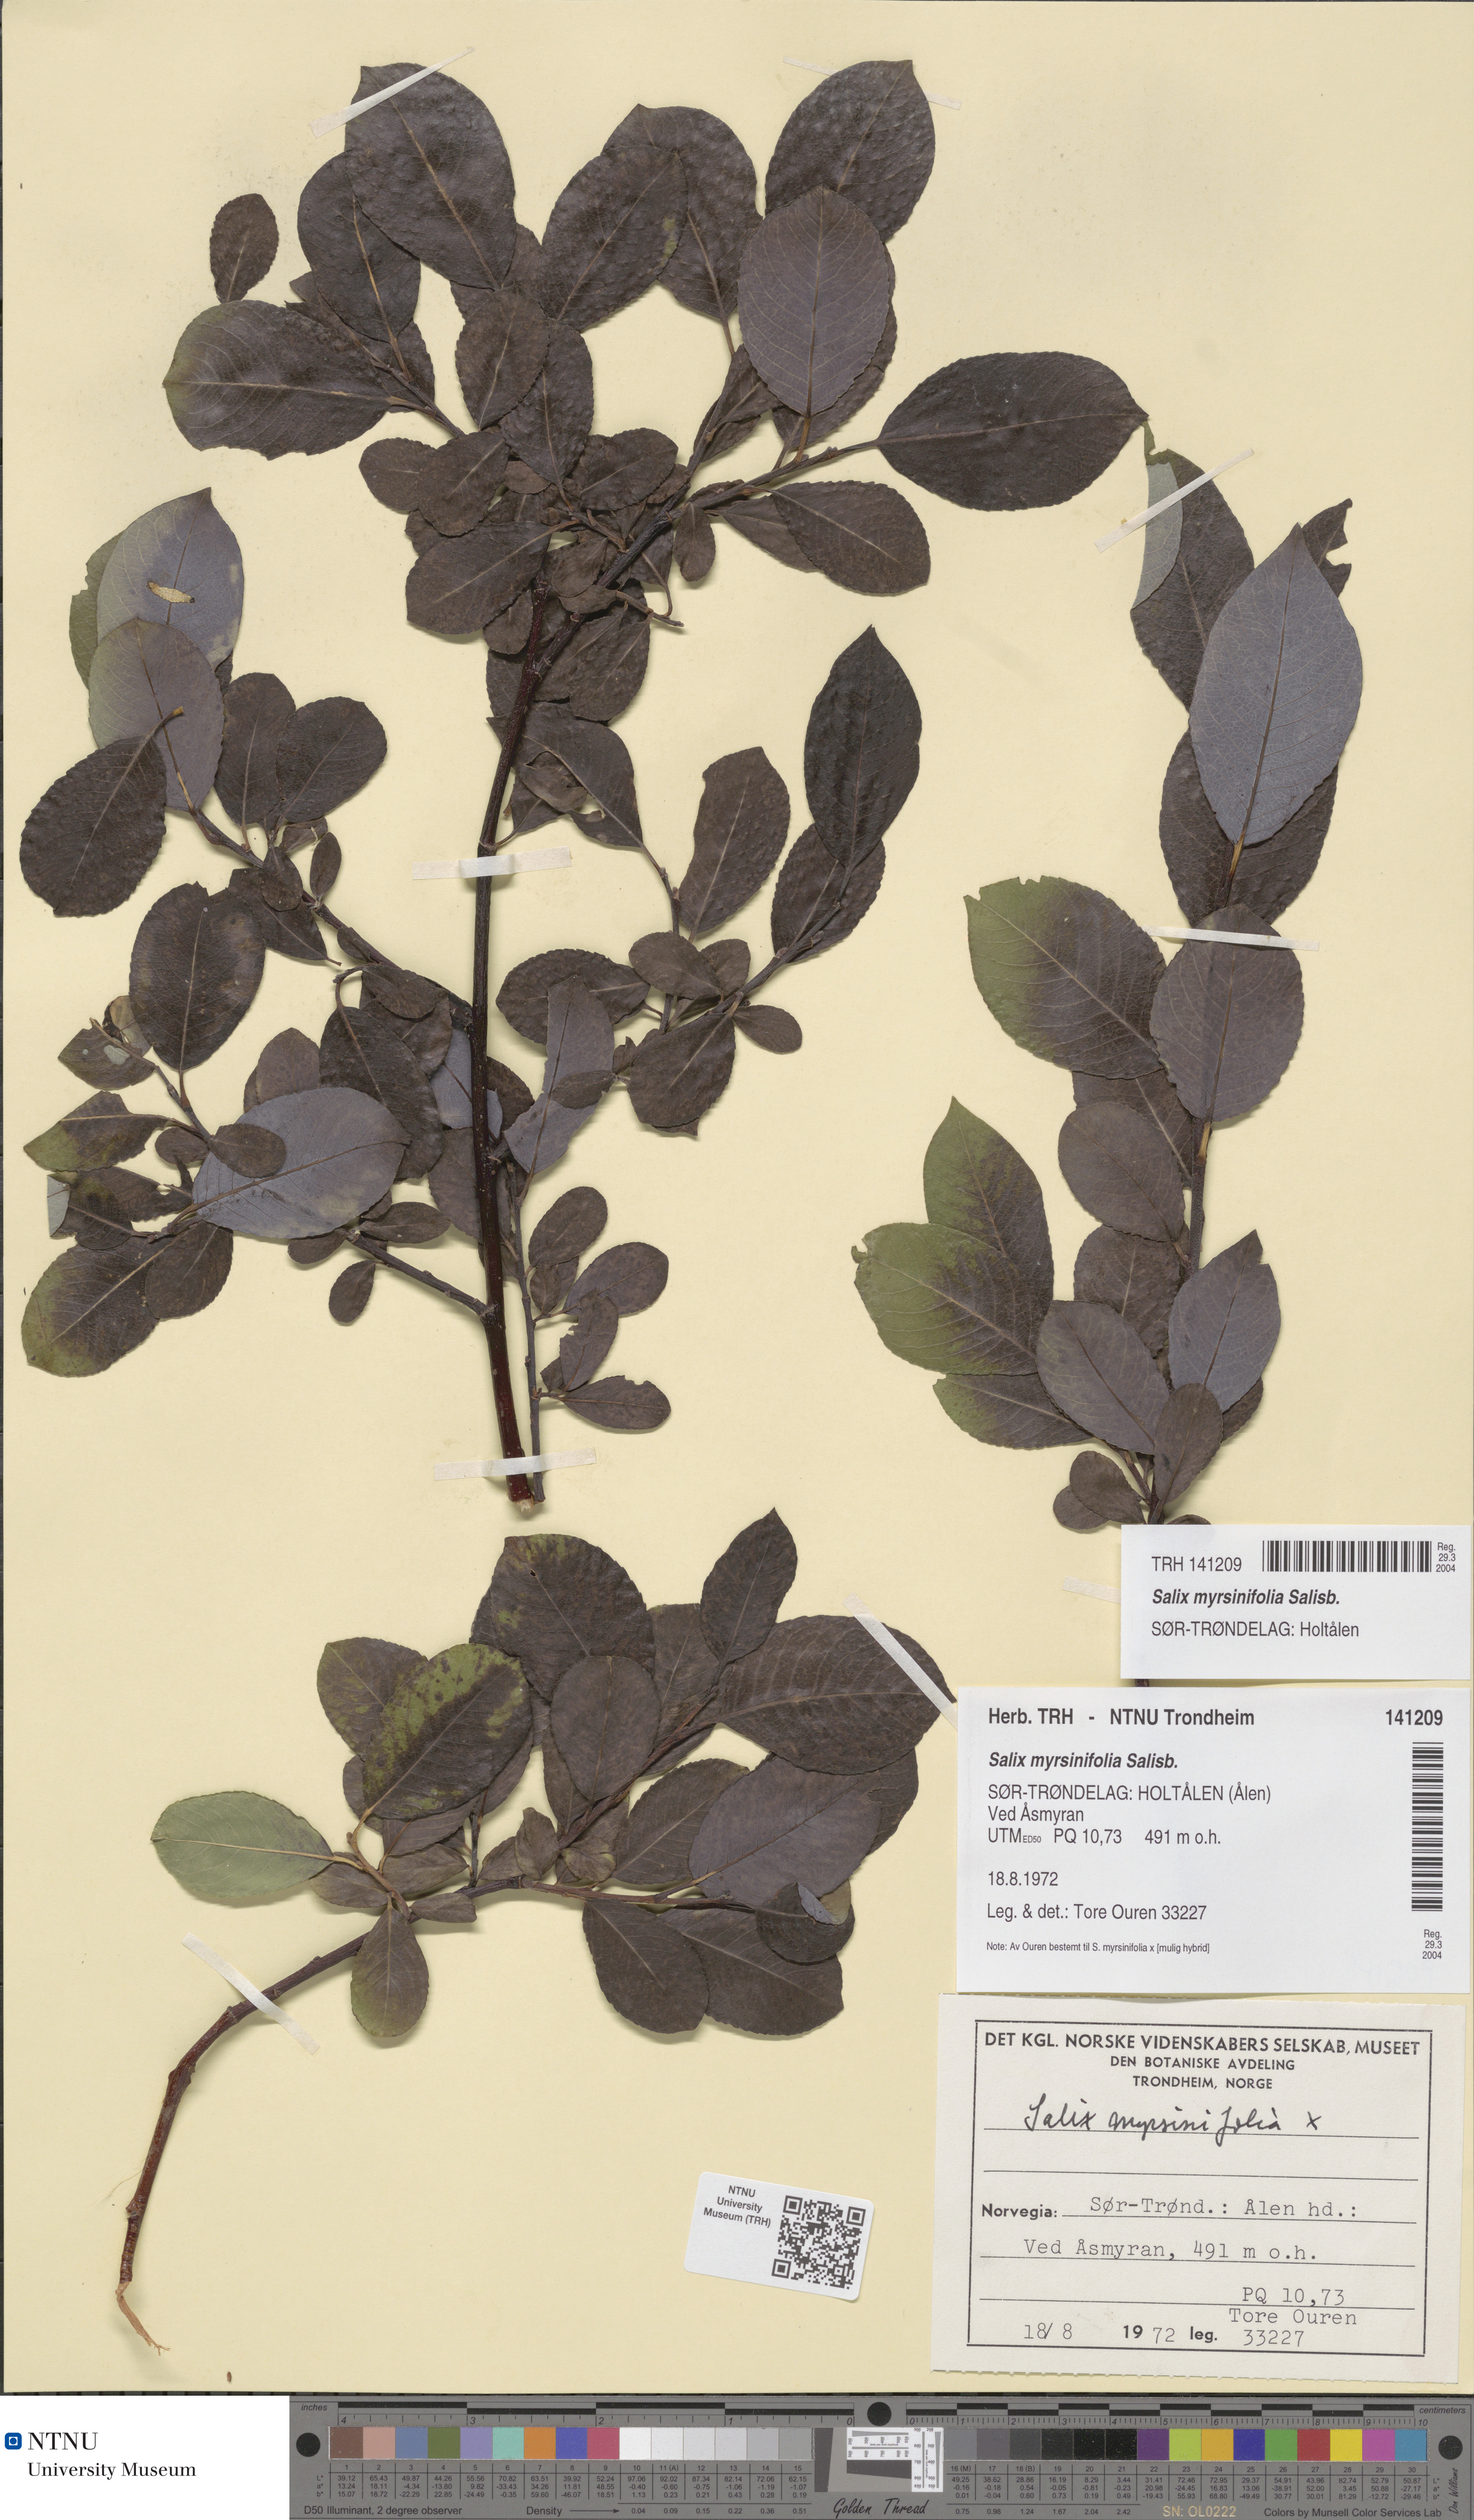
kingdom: Plantae
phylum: Tracheophyta
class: Magnoliopsida
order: Malpighiales
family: Salicaceae
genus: Salix
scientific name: Salix myrsinifolia
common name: Dark-leaved willow
